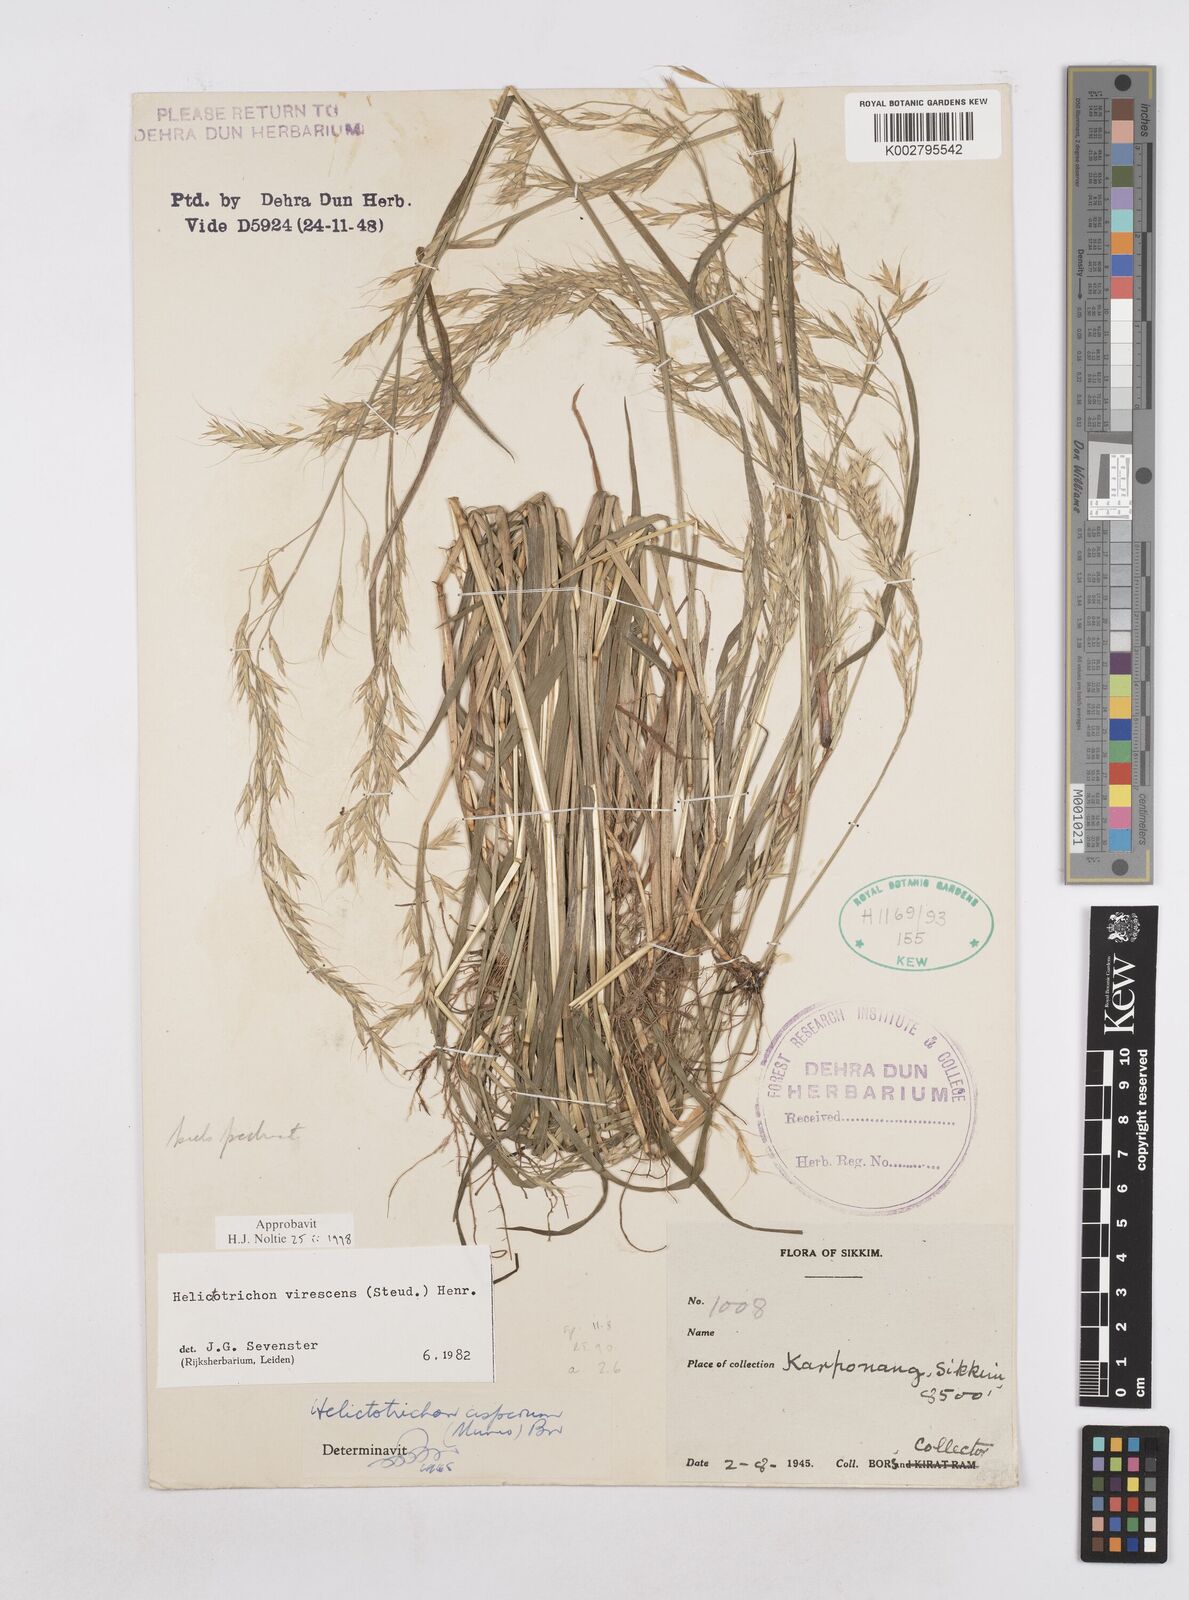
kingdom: Plantae
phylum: Tracheophyta
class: Liliopsida
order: Poales
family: Poaceae
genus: Trisetopsis
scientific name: Trisetopsis junghuhnii
